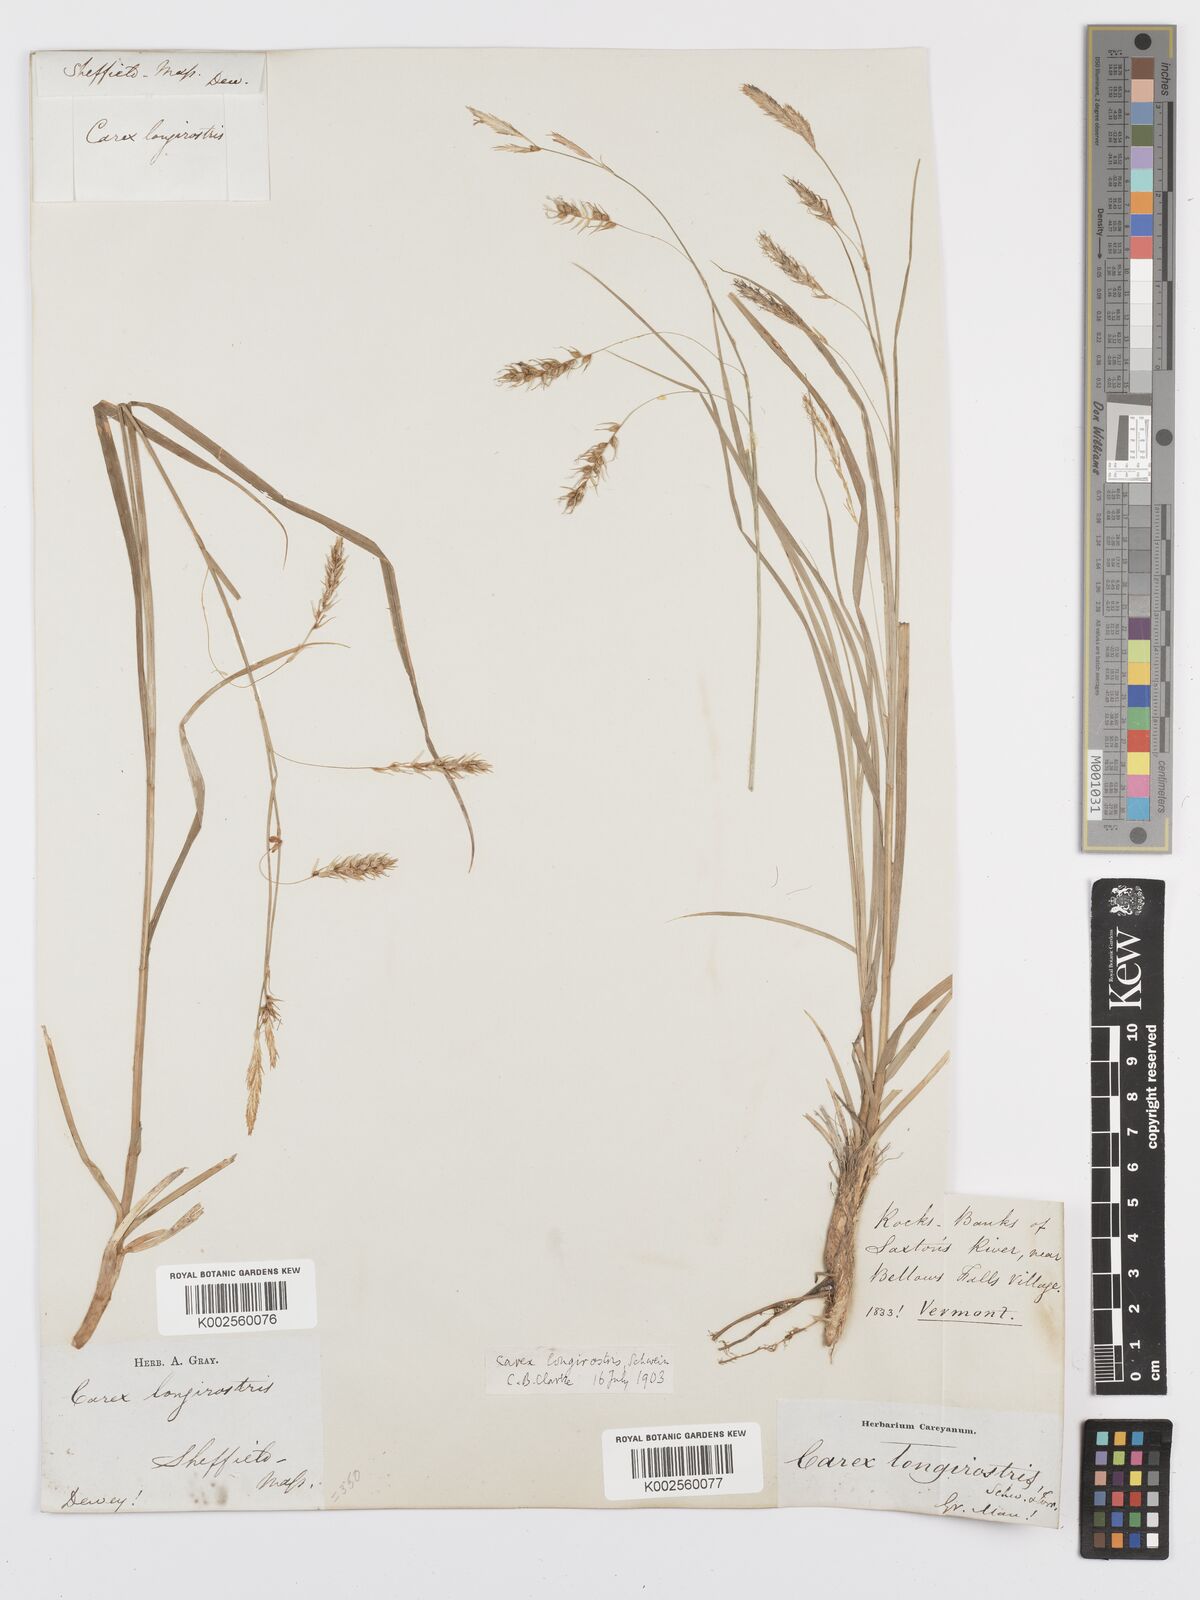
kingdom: Plantae
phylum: Tracheophyta
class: Liliopsida
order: Poales
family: Cyperaceae
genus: Carex
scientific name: Carex sprengelii
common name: Long-beaked sedge
